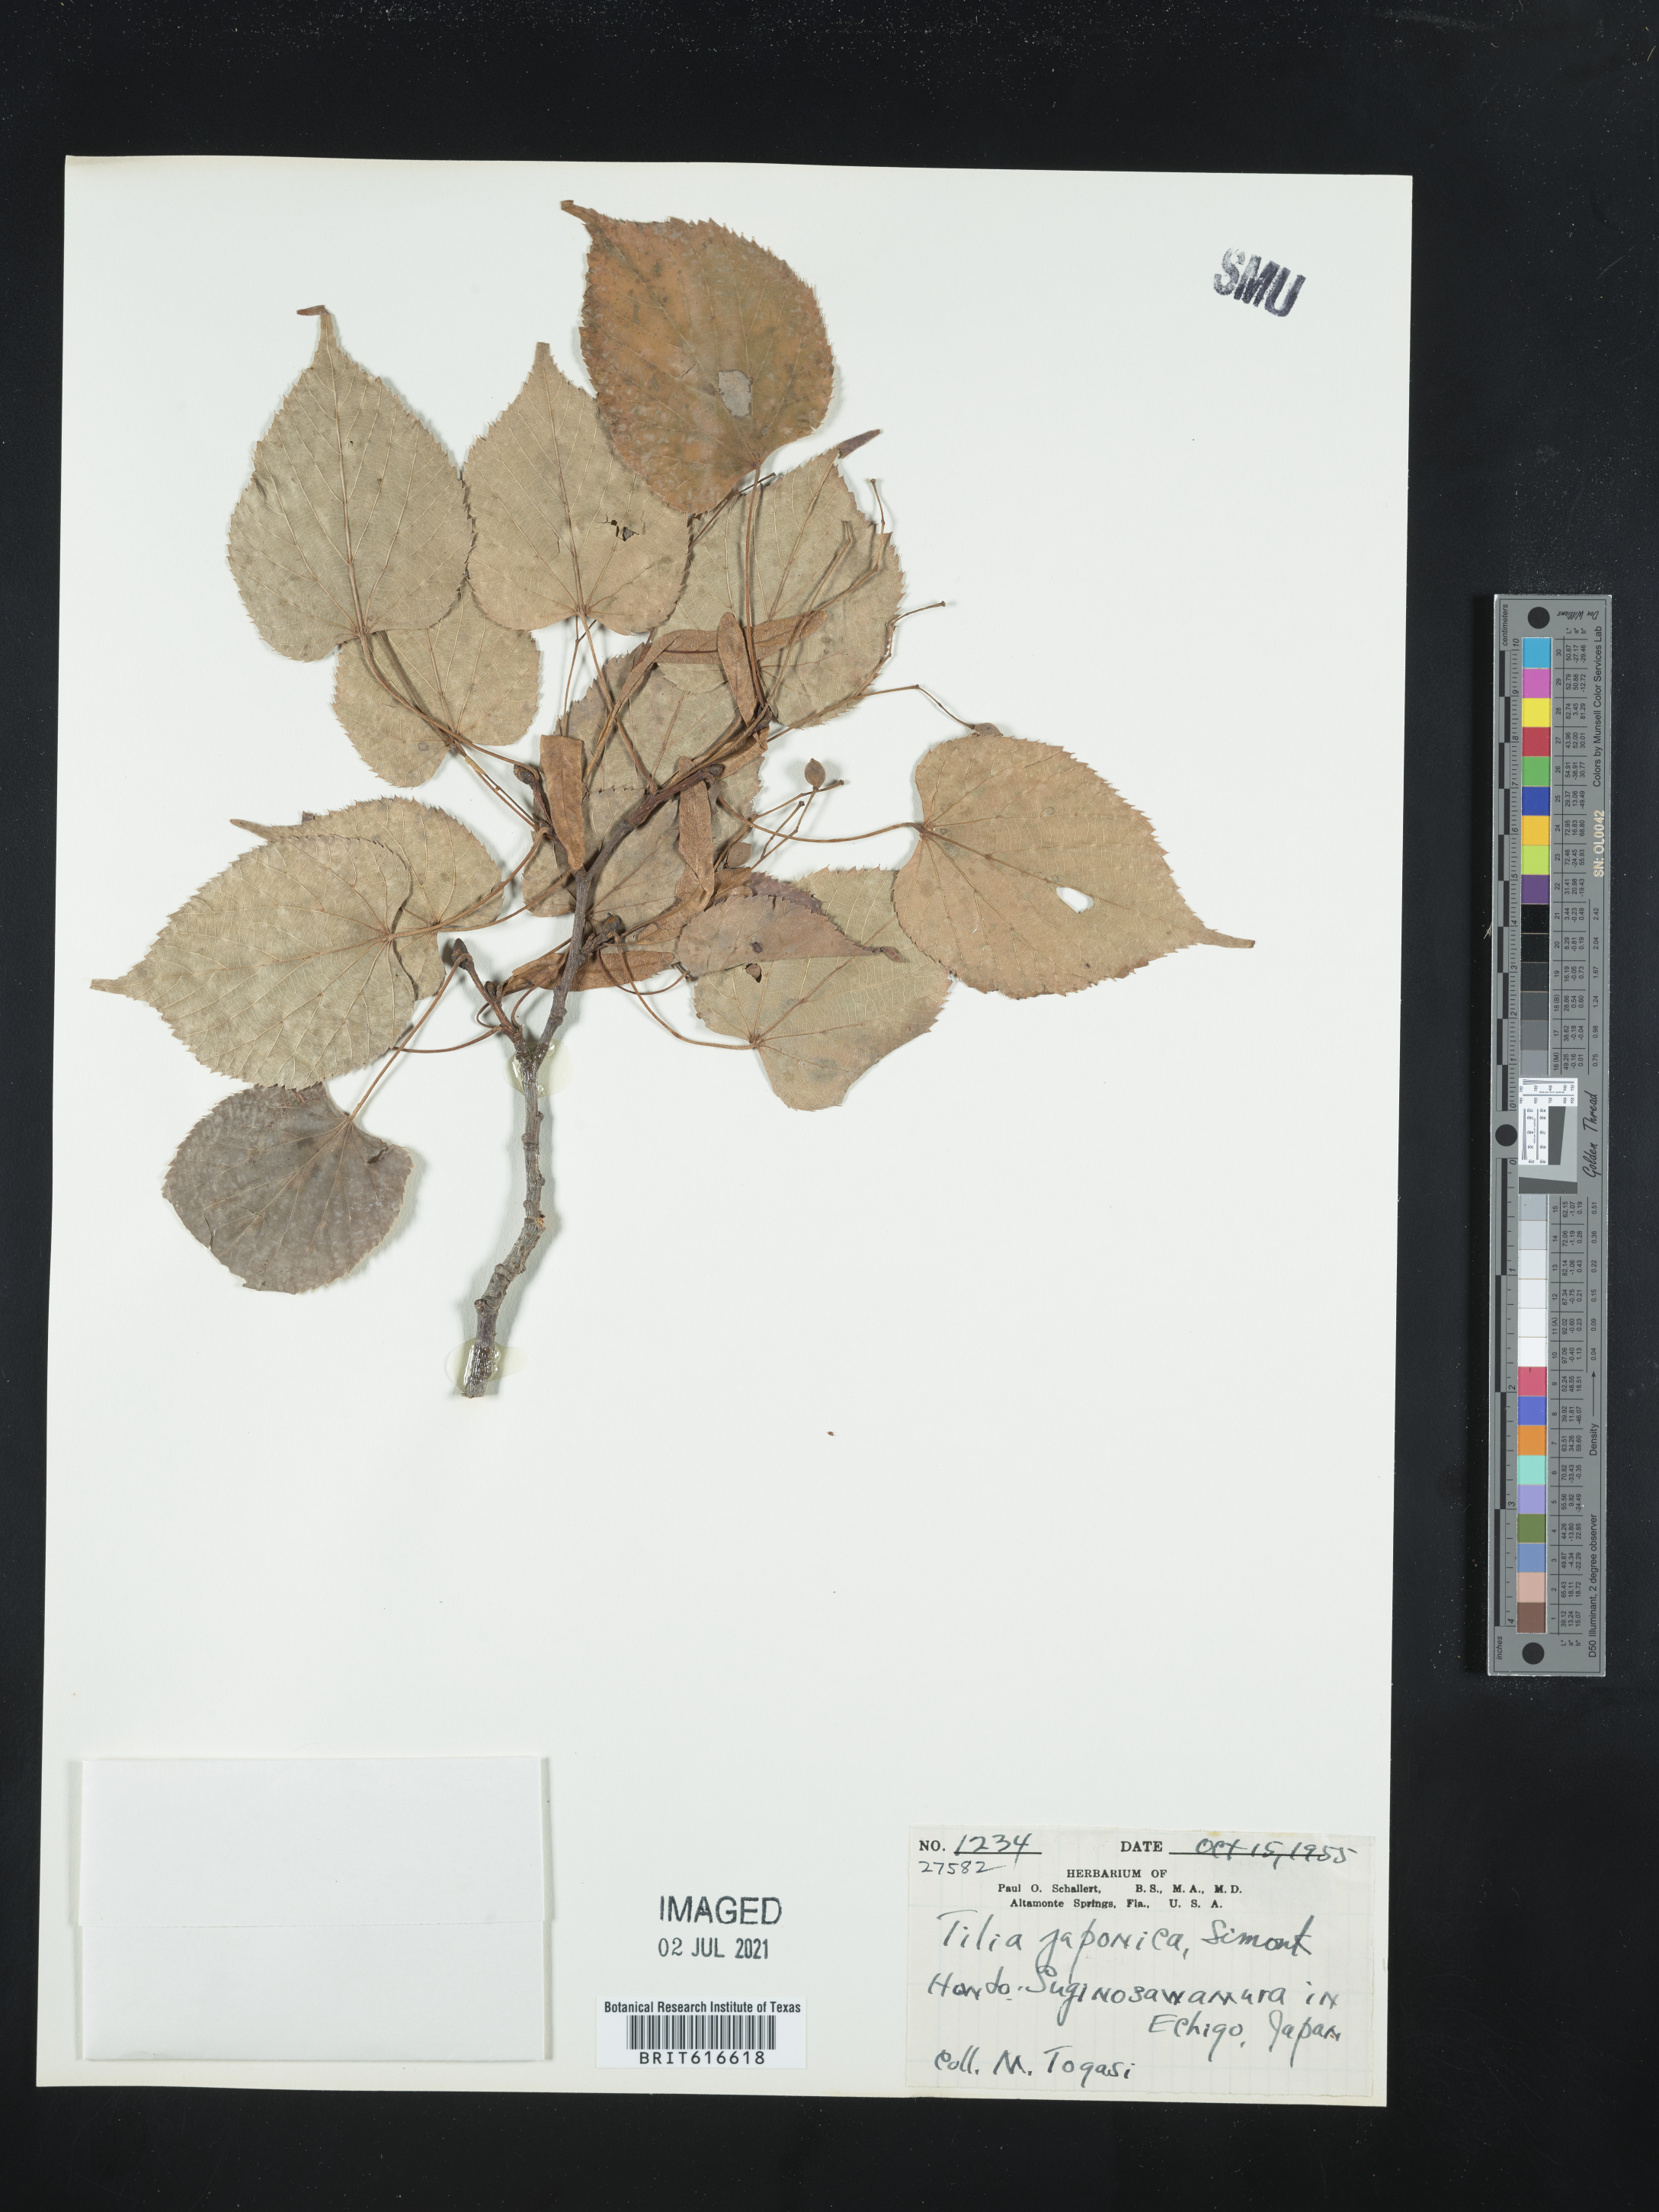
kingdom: Plantae
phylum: Tracheophyta
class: Magnoliopsida
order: Malvales
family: Malvaceae
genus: Tilia
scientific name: Tilia japonica
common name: Japanese lime
